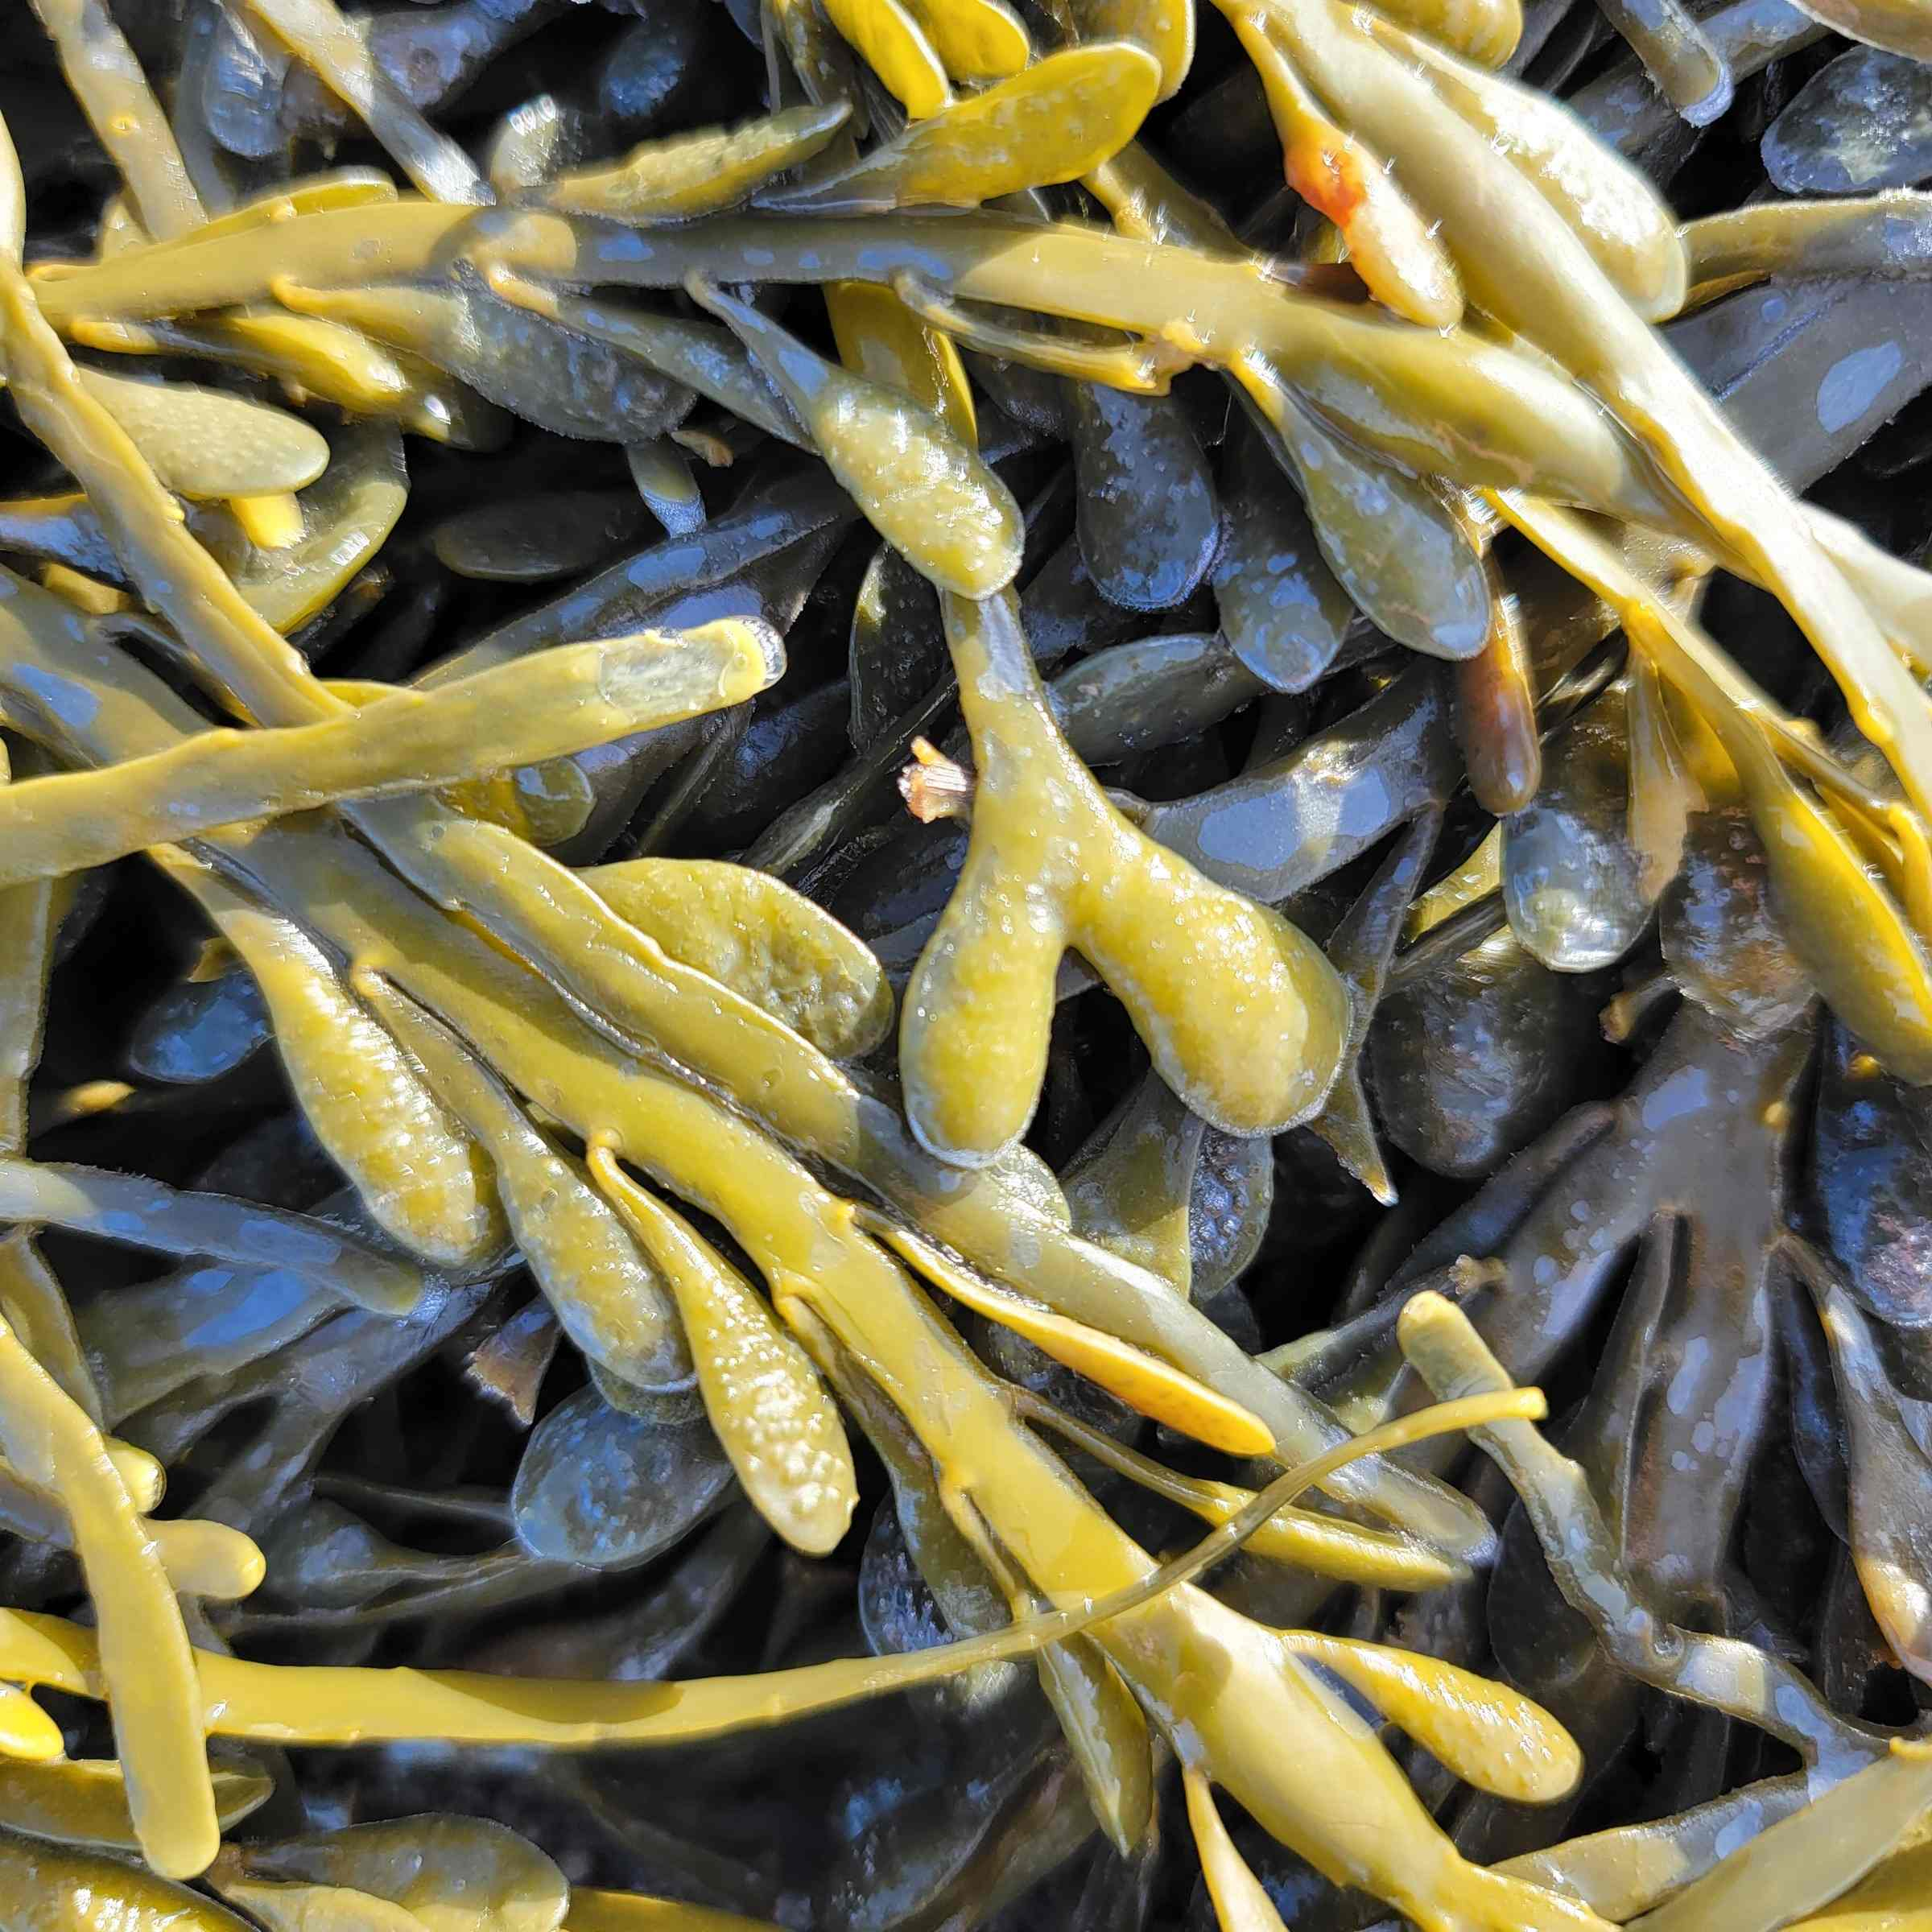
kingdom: Chromista
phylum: Ochrophyta
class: Phaeophyceae
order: Fucales
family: Fucaceae
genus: Ascophyllum
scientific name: Ascophyllum nodosum
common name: Rockweed
